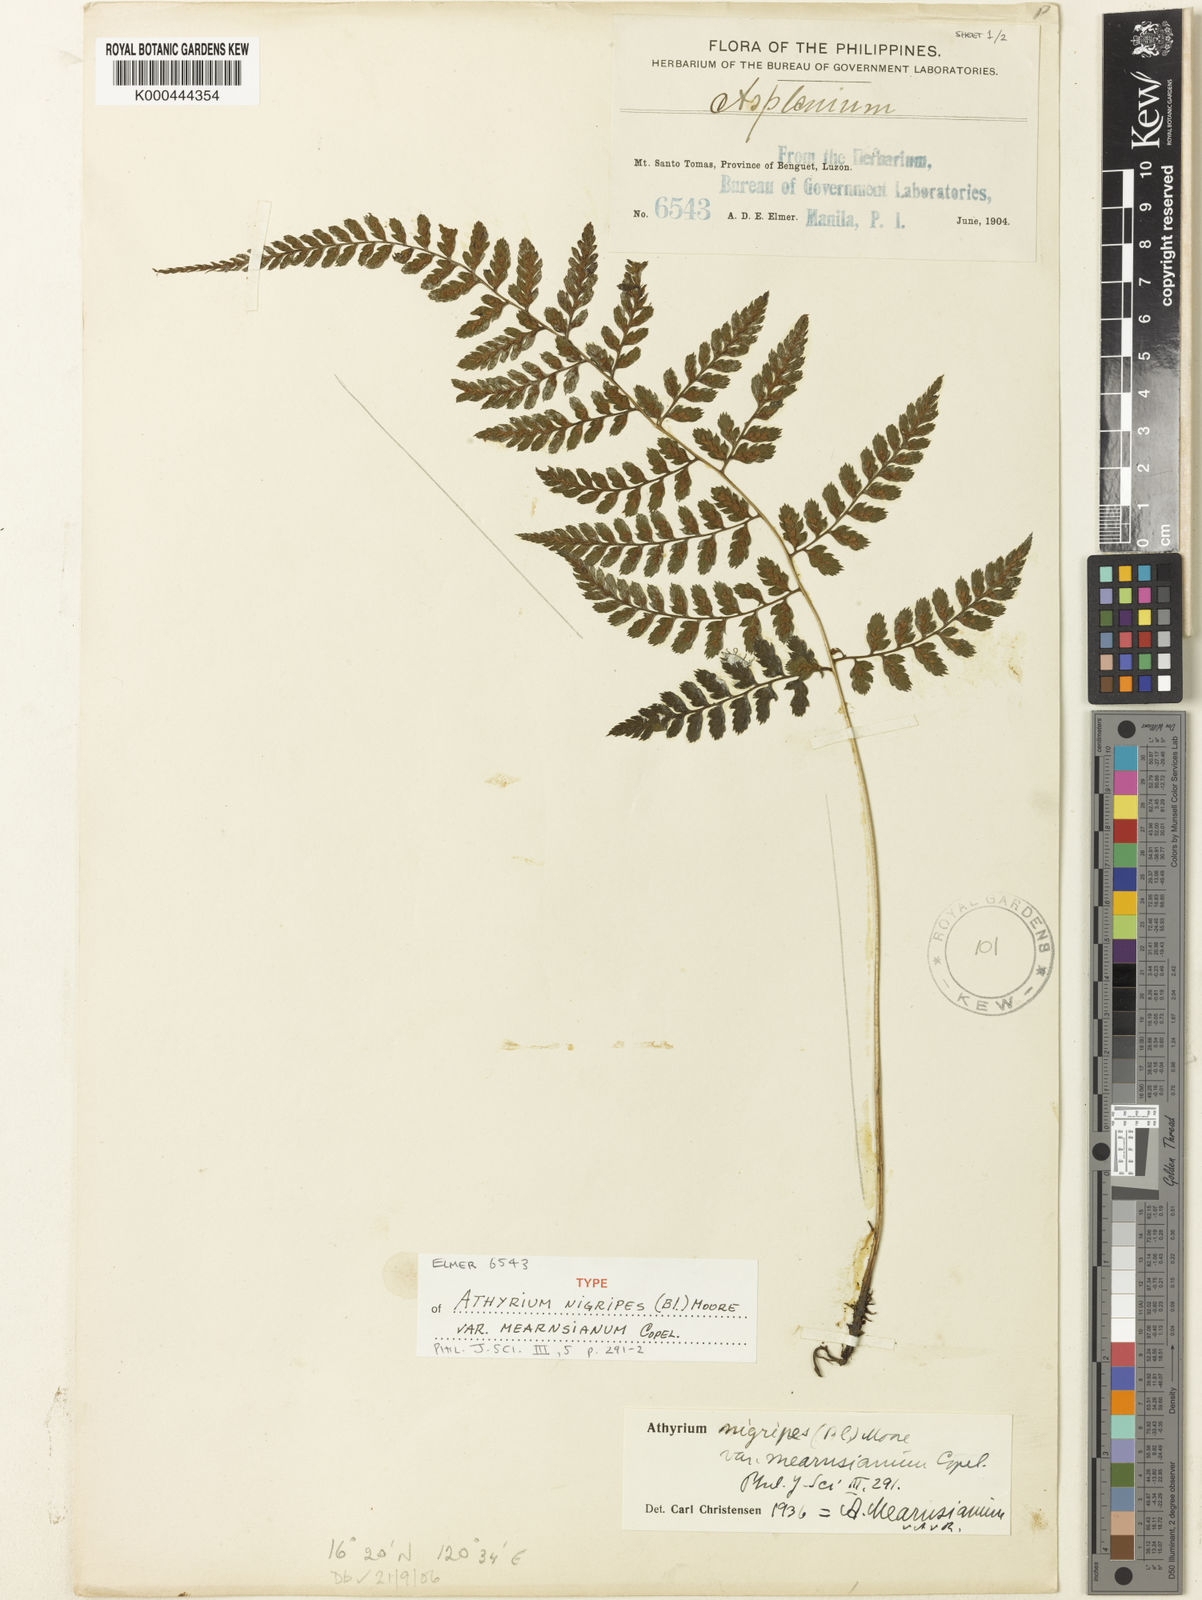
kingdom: Plantae
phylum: Tracheophyta
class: Polypodiopsida
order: Polypodiales
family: Athyriaceae
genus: Athyrium
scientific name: Athyrium nitidulum
